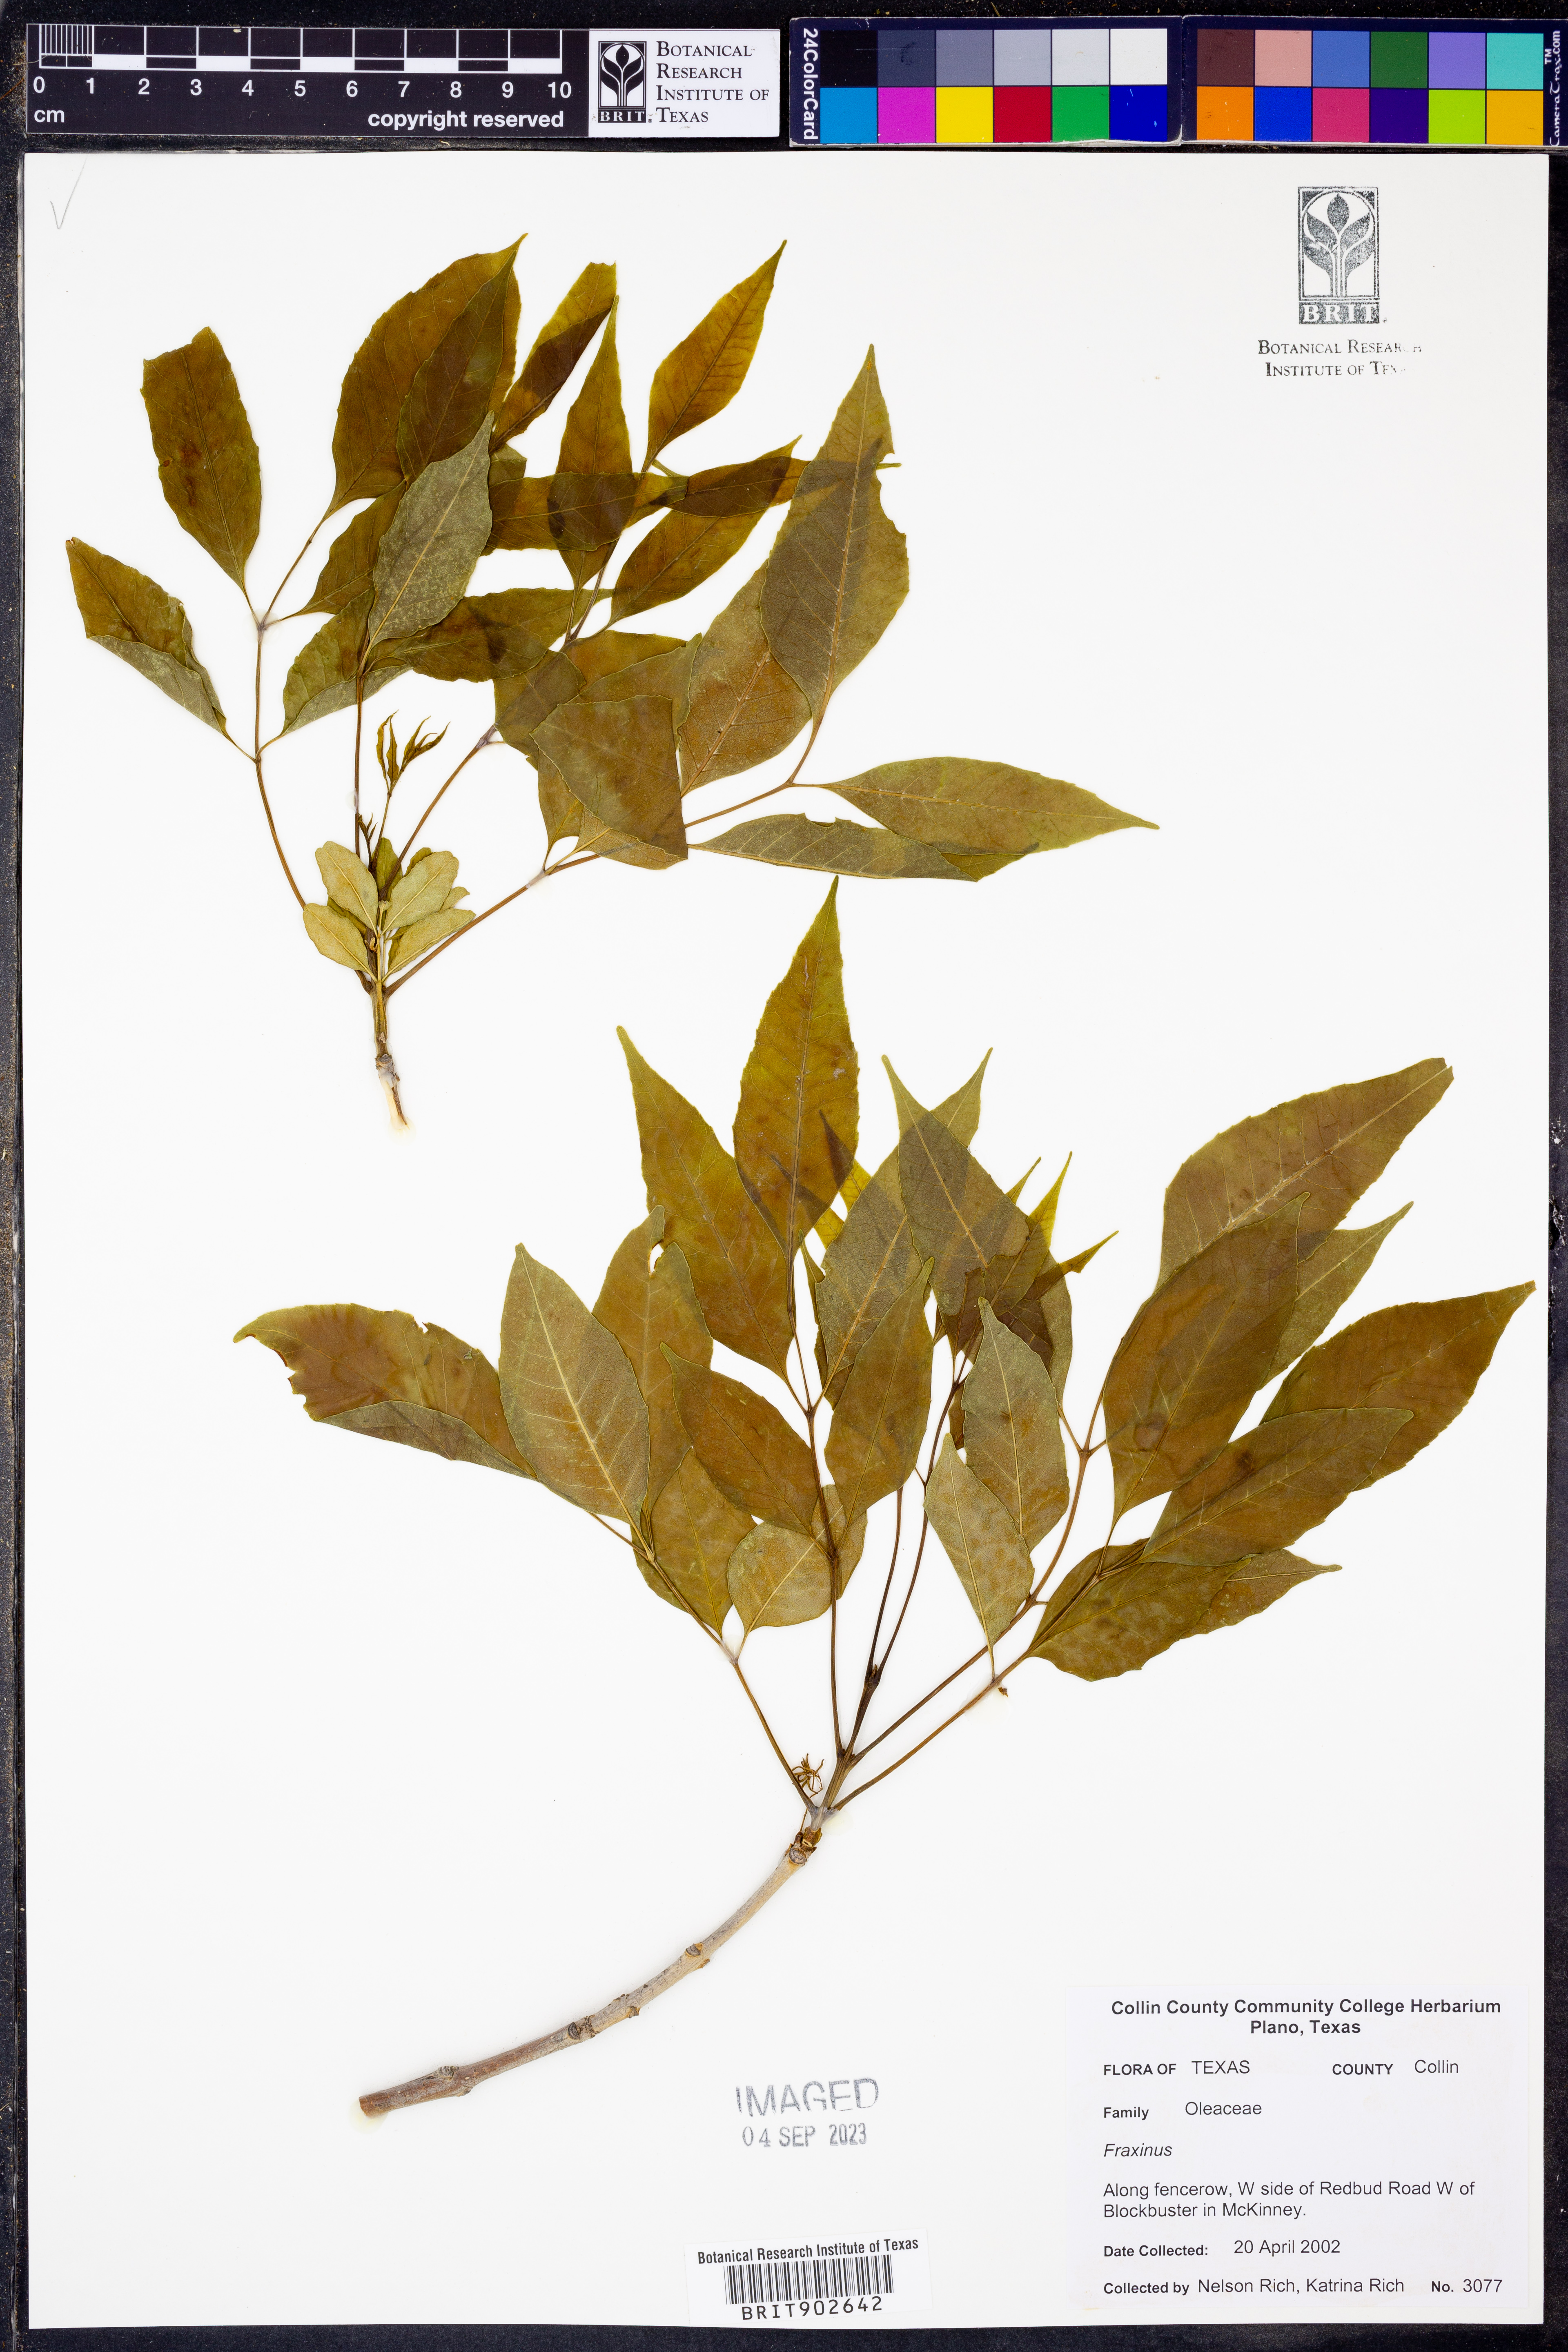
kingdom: Plantae
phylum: Tracheophyta
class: Magnoliopsida
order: Lamiales
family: Oleaceae
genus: Fraxinus
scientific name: Fraxinus
